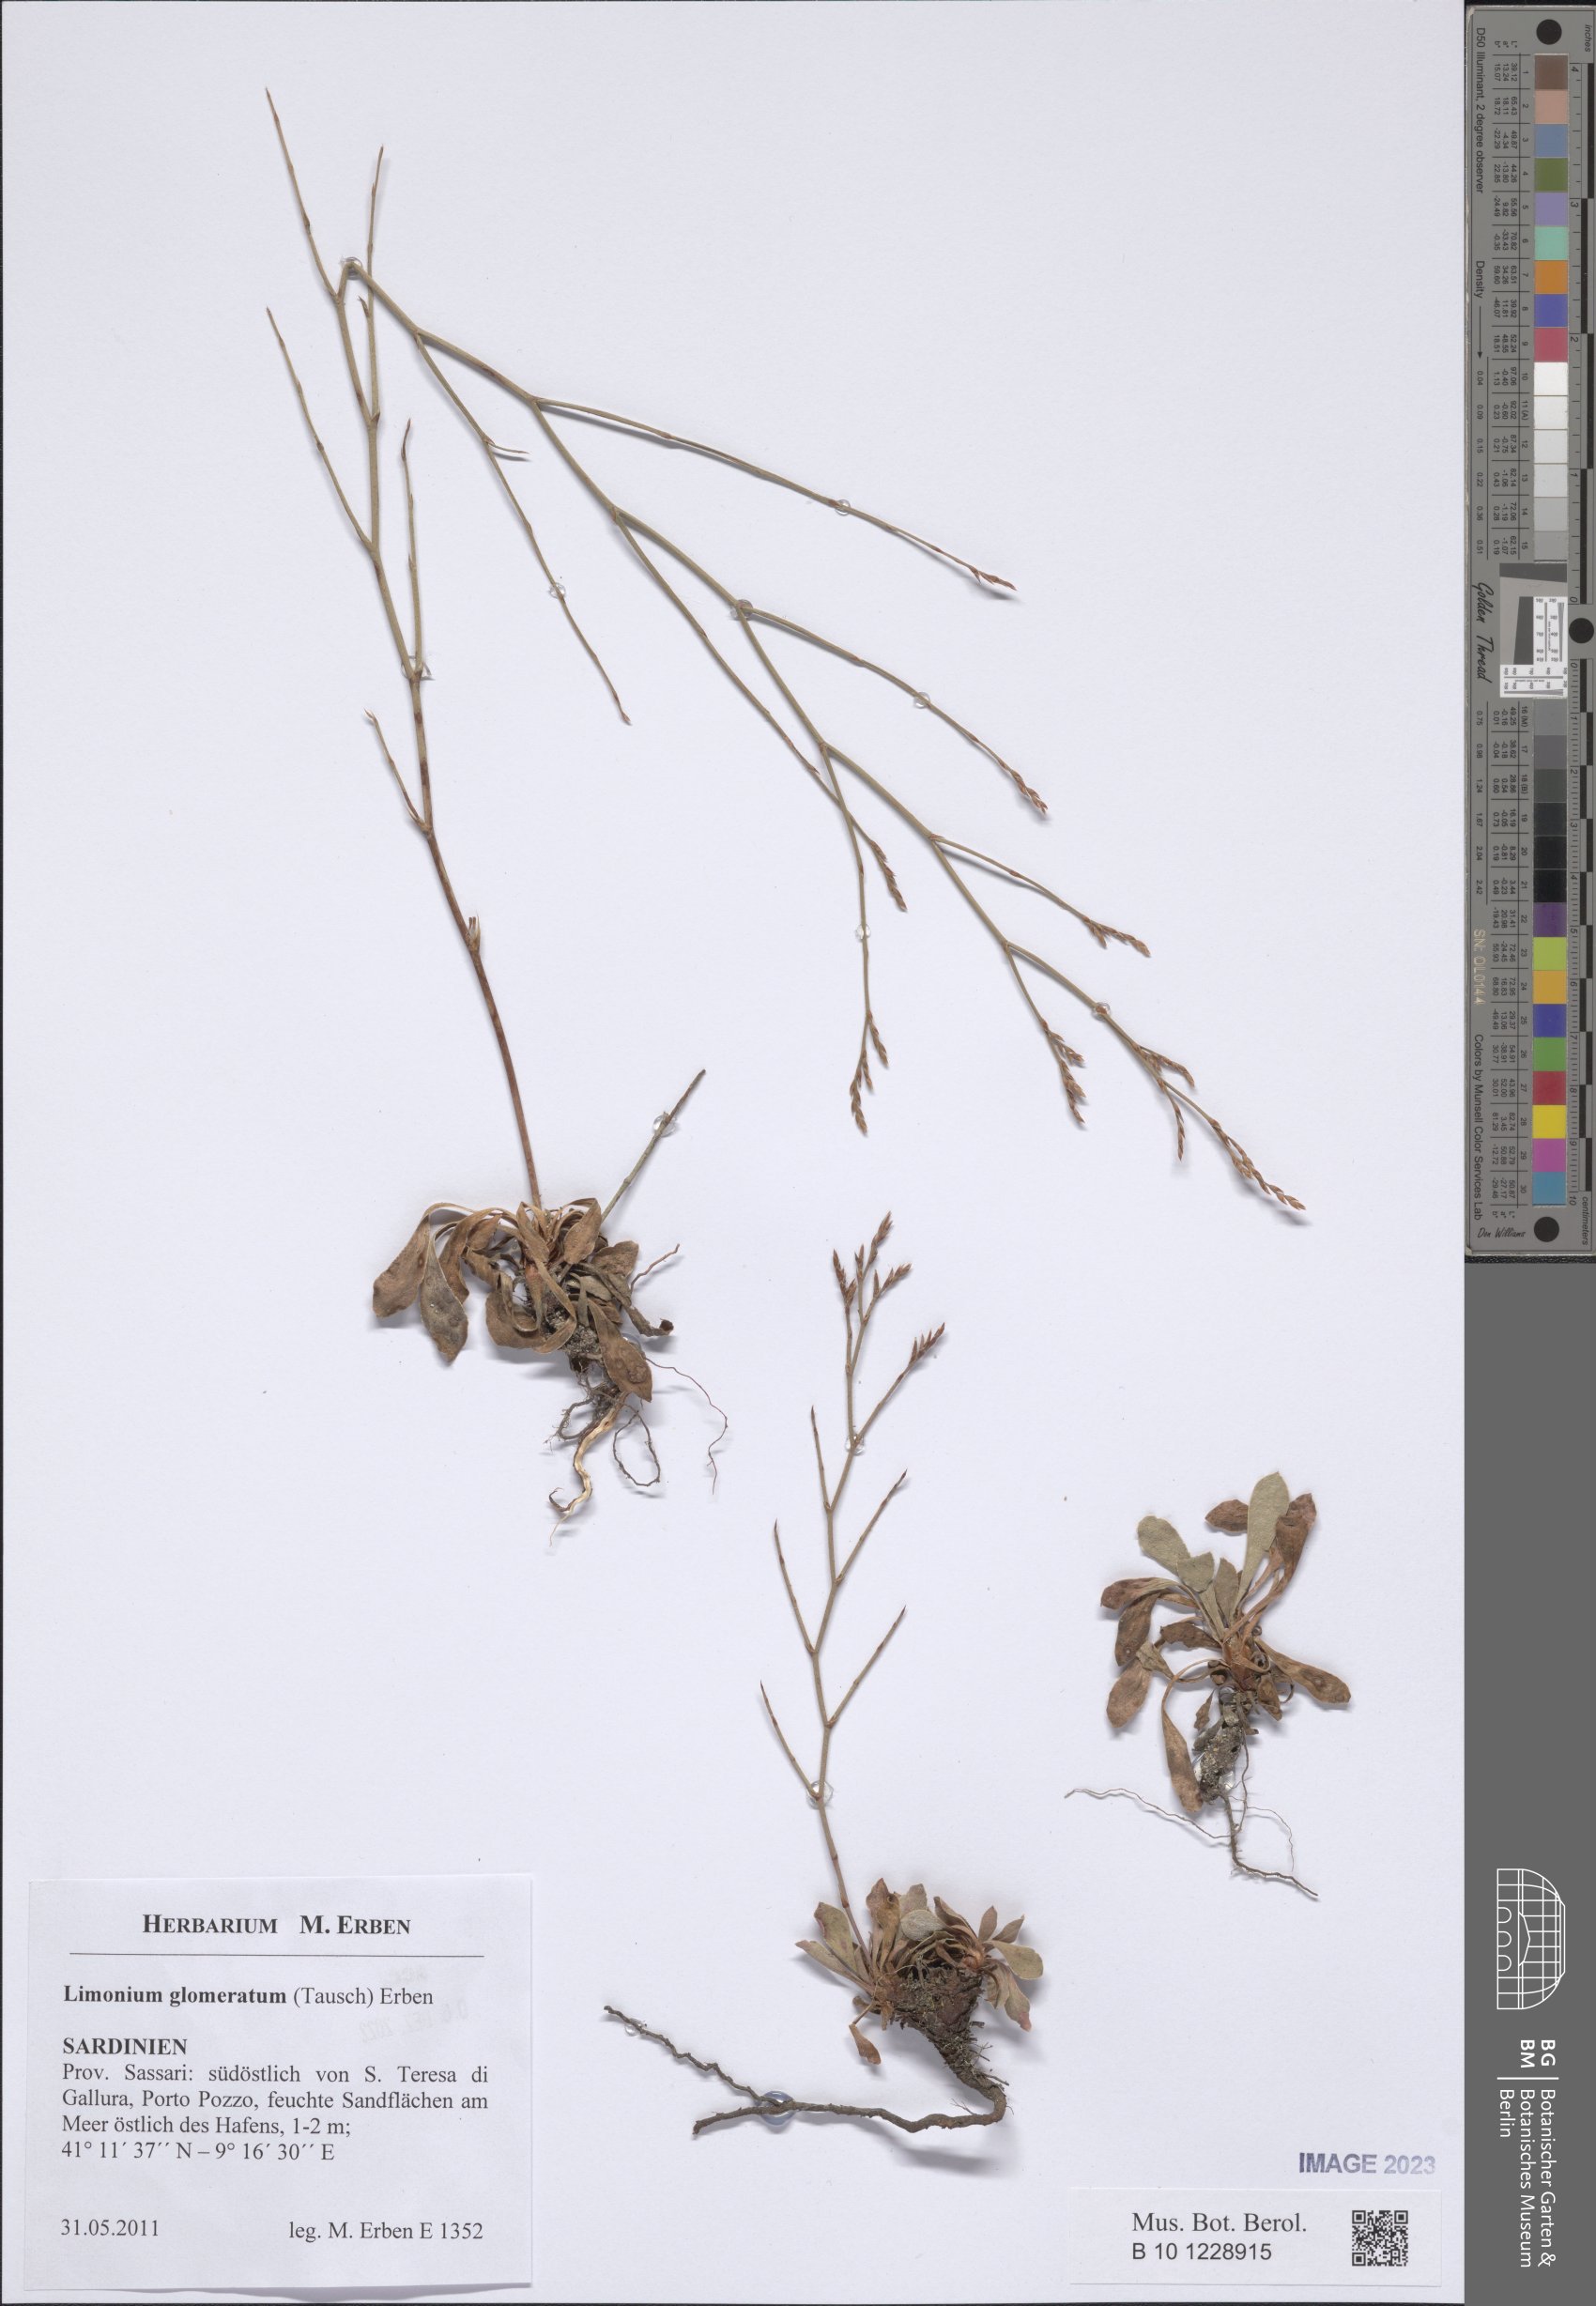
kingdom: Plantae
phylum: Tracheophyta
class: Magnoliopsida
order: Caryophyllales
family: Plumbaginaceae
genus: Limonium
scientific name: Limonium glomeratum
